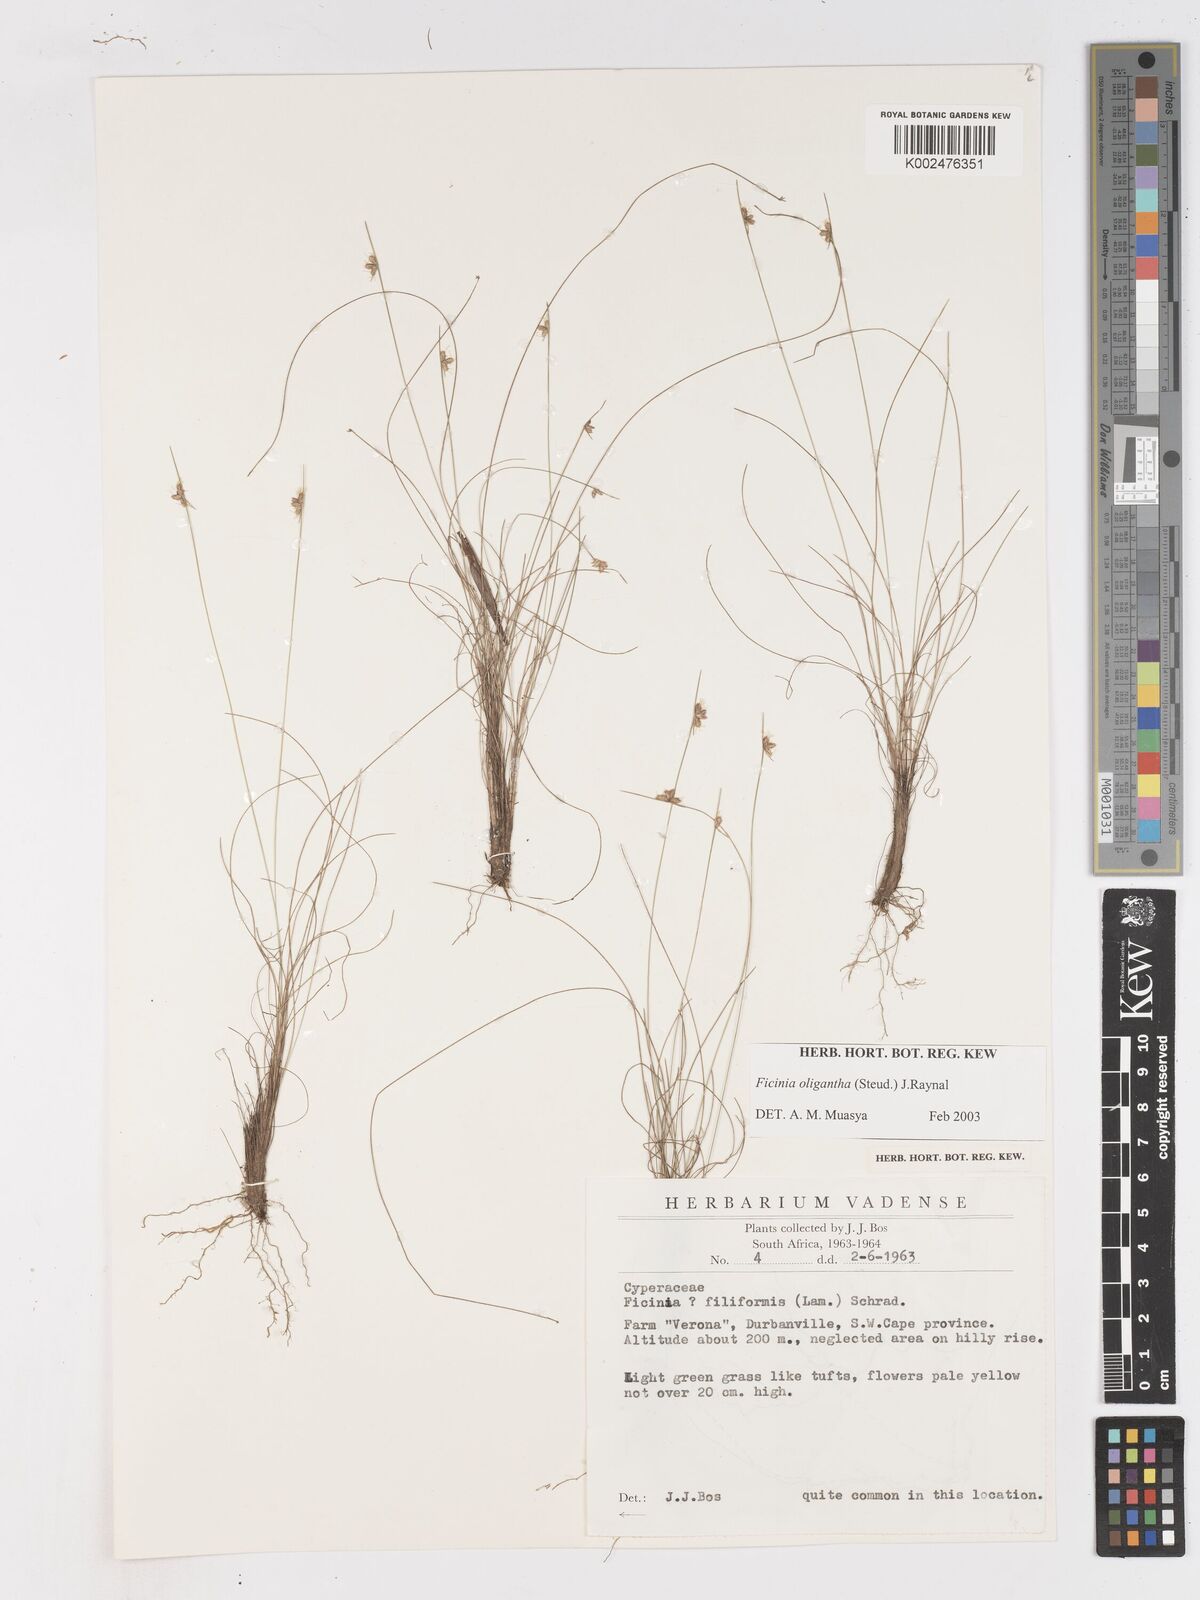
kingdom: Plantae
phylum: Tracheophyta
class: Liliopsida
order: Poales
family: Cyperaceae
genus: Ficinia
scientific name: Ficinia oligantha
